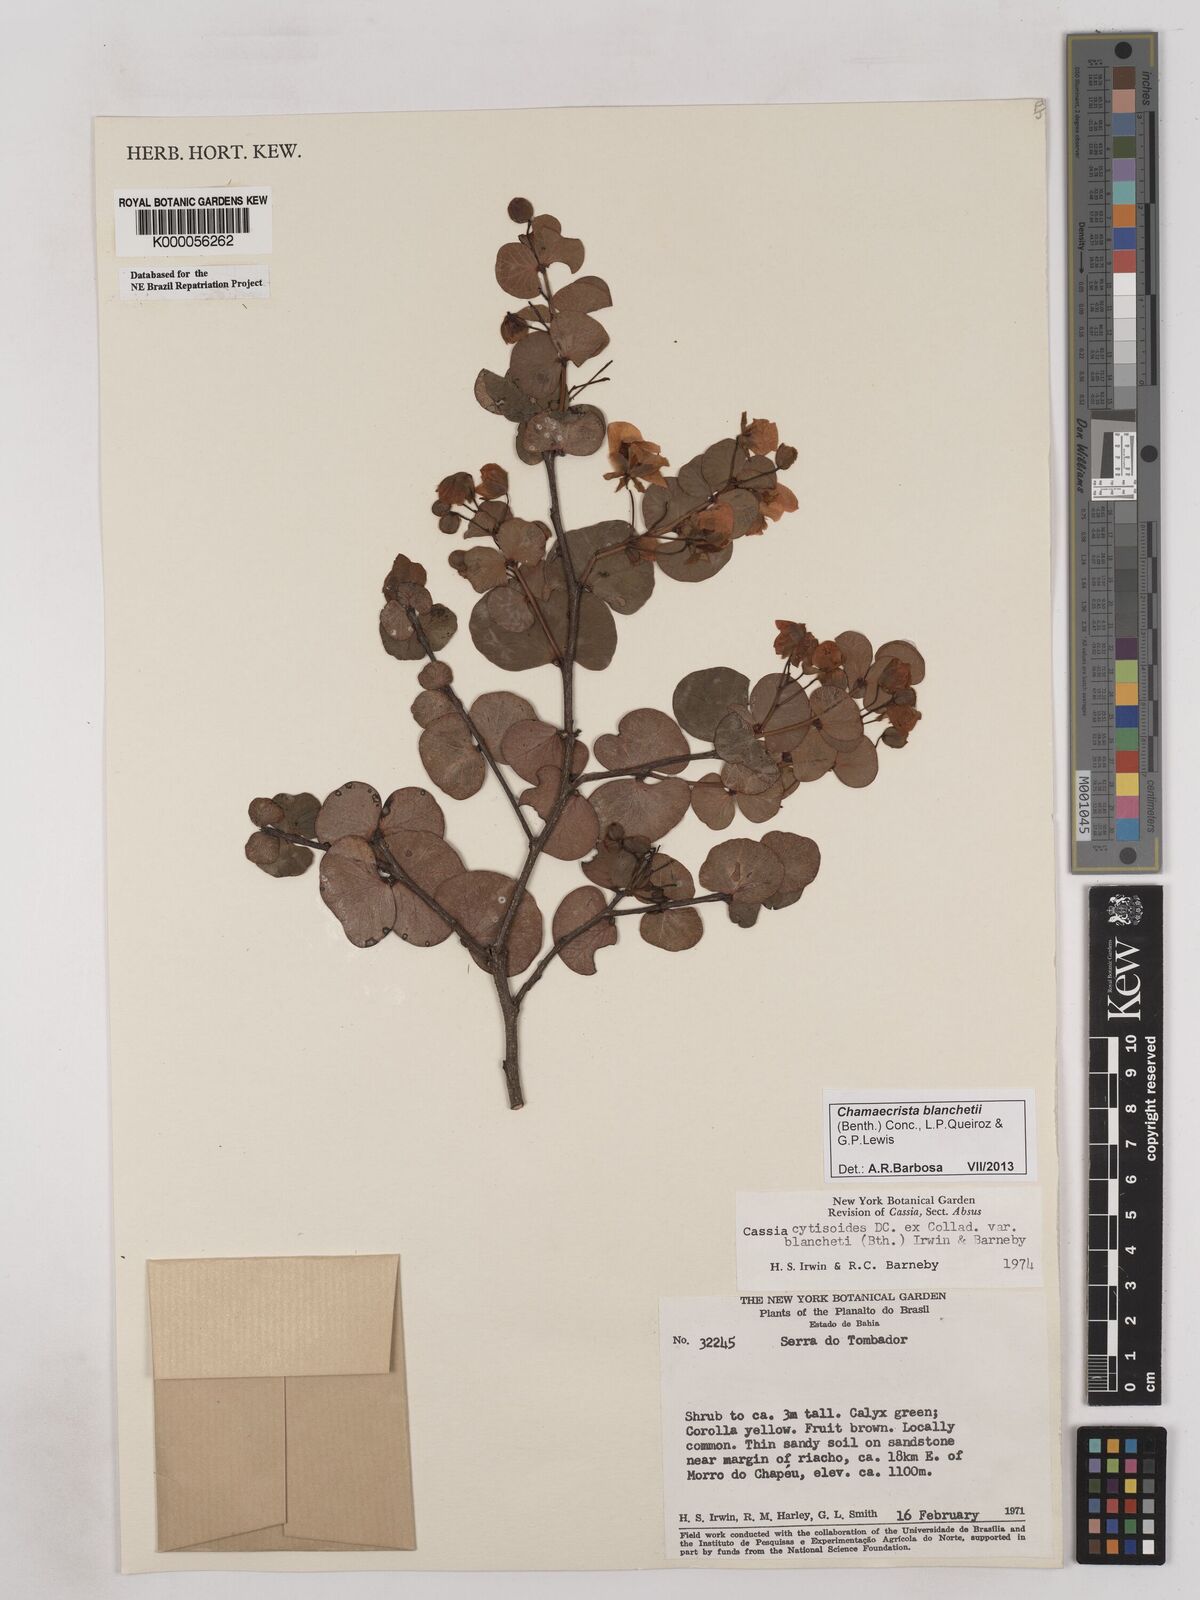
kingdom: Plantae
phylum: Tracheophyta
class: Magnoliopsida
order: Fabales
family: Fabaceae
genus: Chamaecrista
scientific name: Chamaecrista cytisoides
